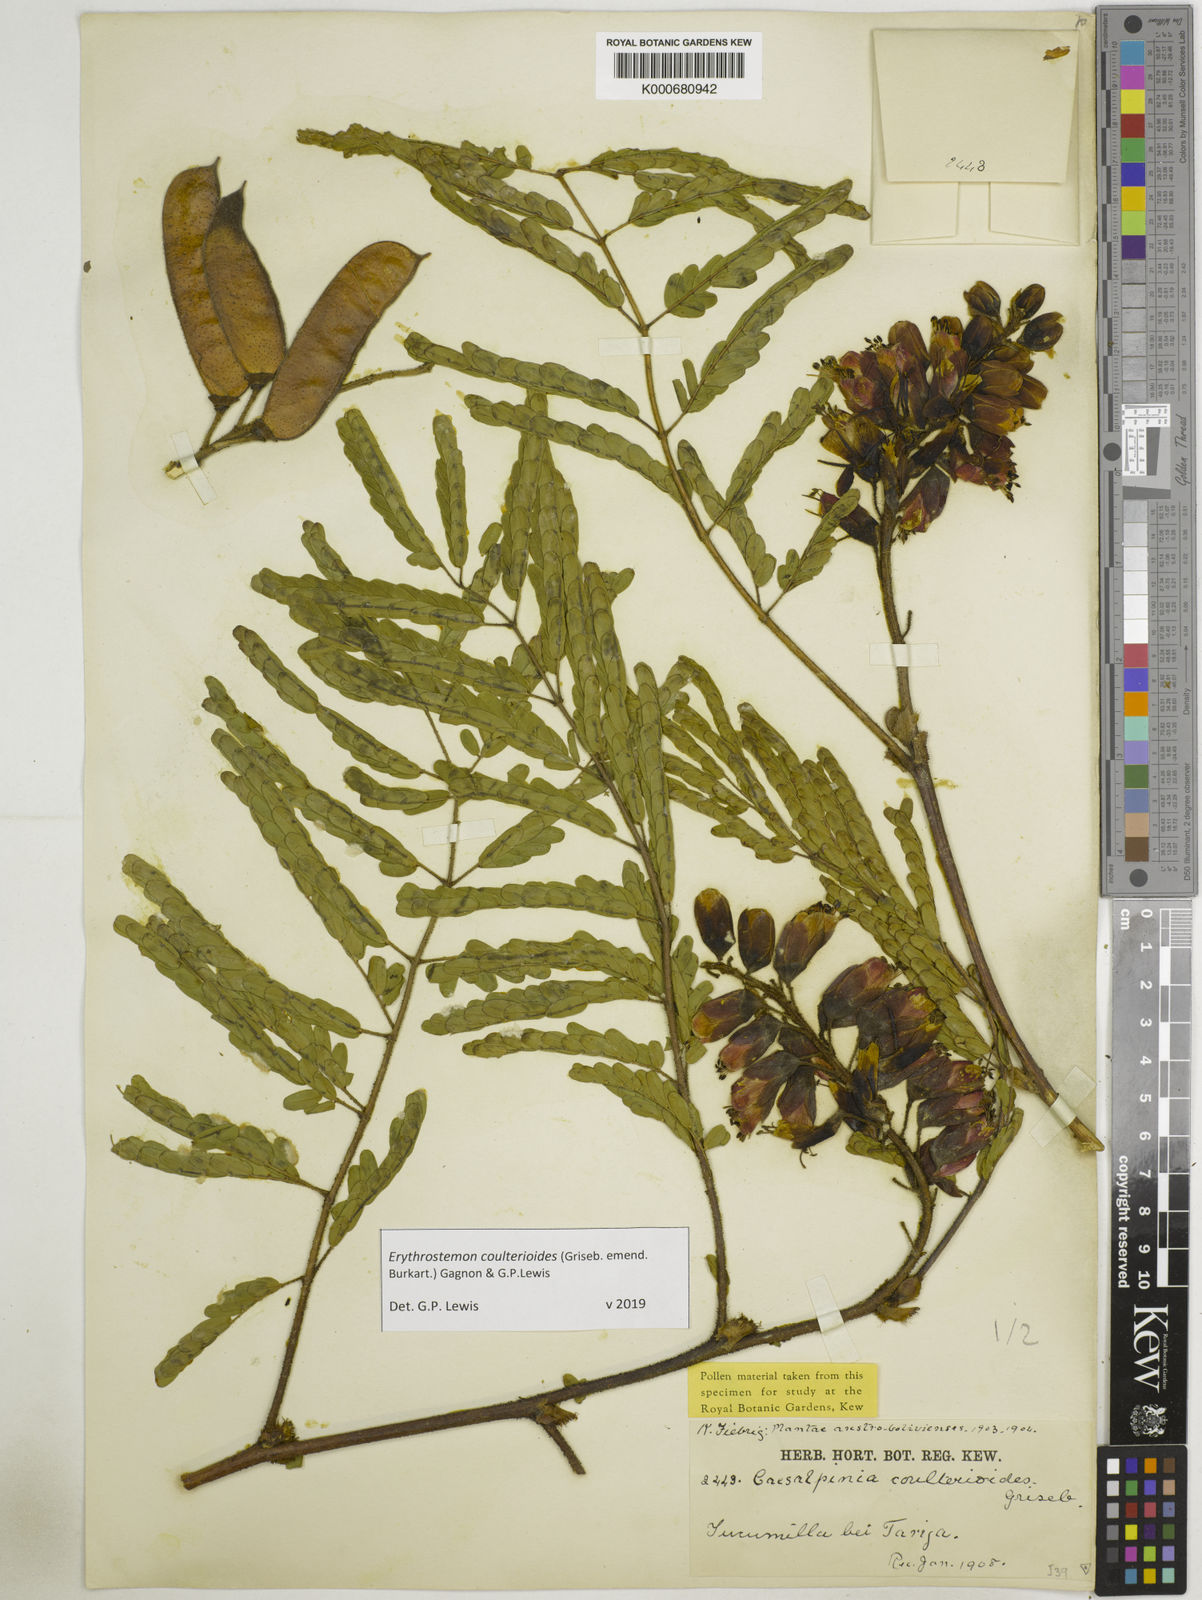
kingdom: Plantae
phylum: Tracheophyta
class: Magnoliopsida
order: Fabales
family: Fabaceae
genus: Caesalpinia
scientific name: Caesalpinia
